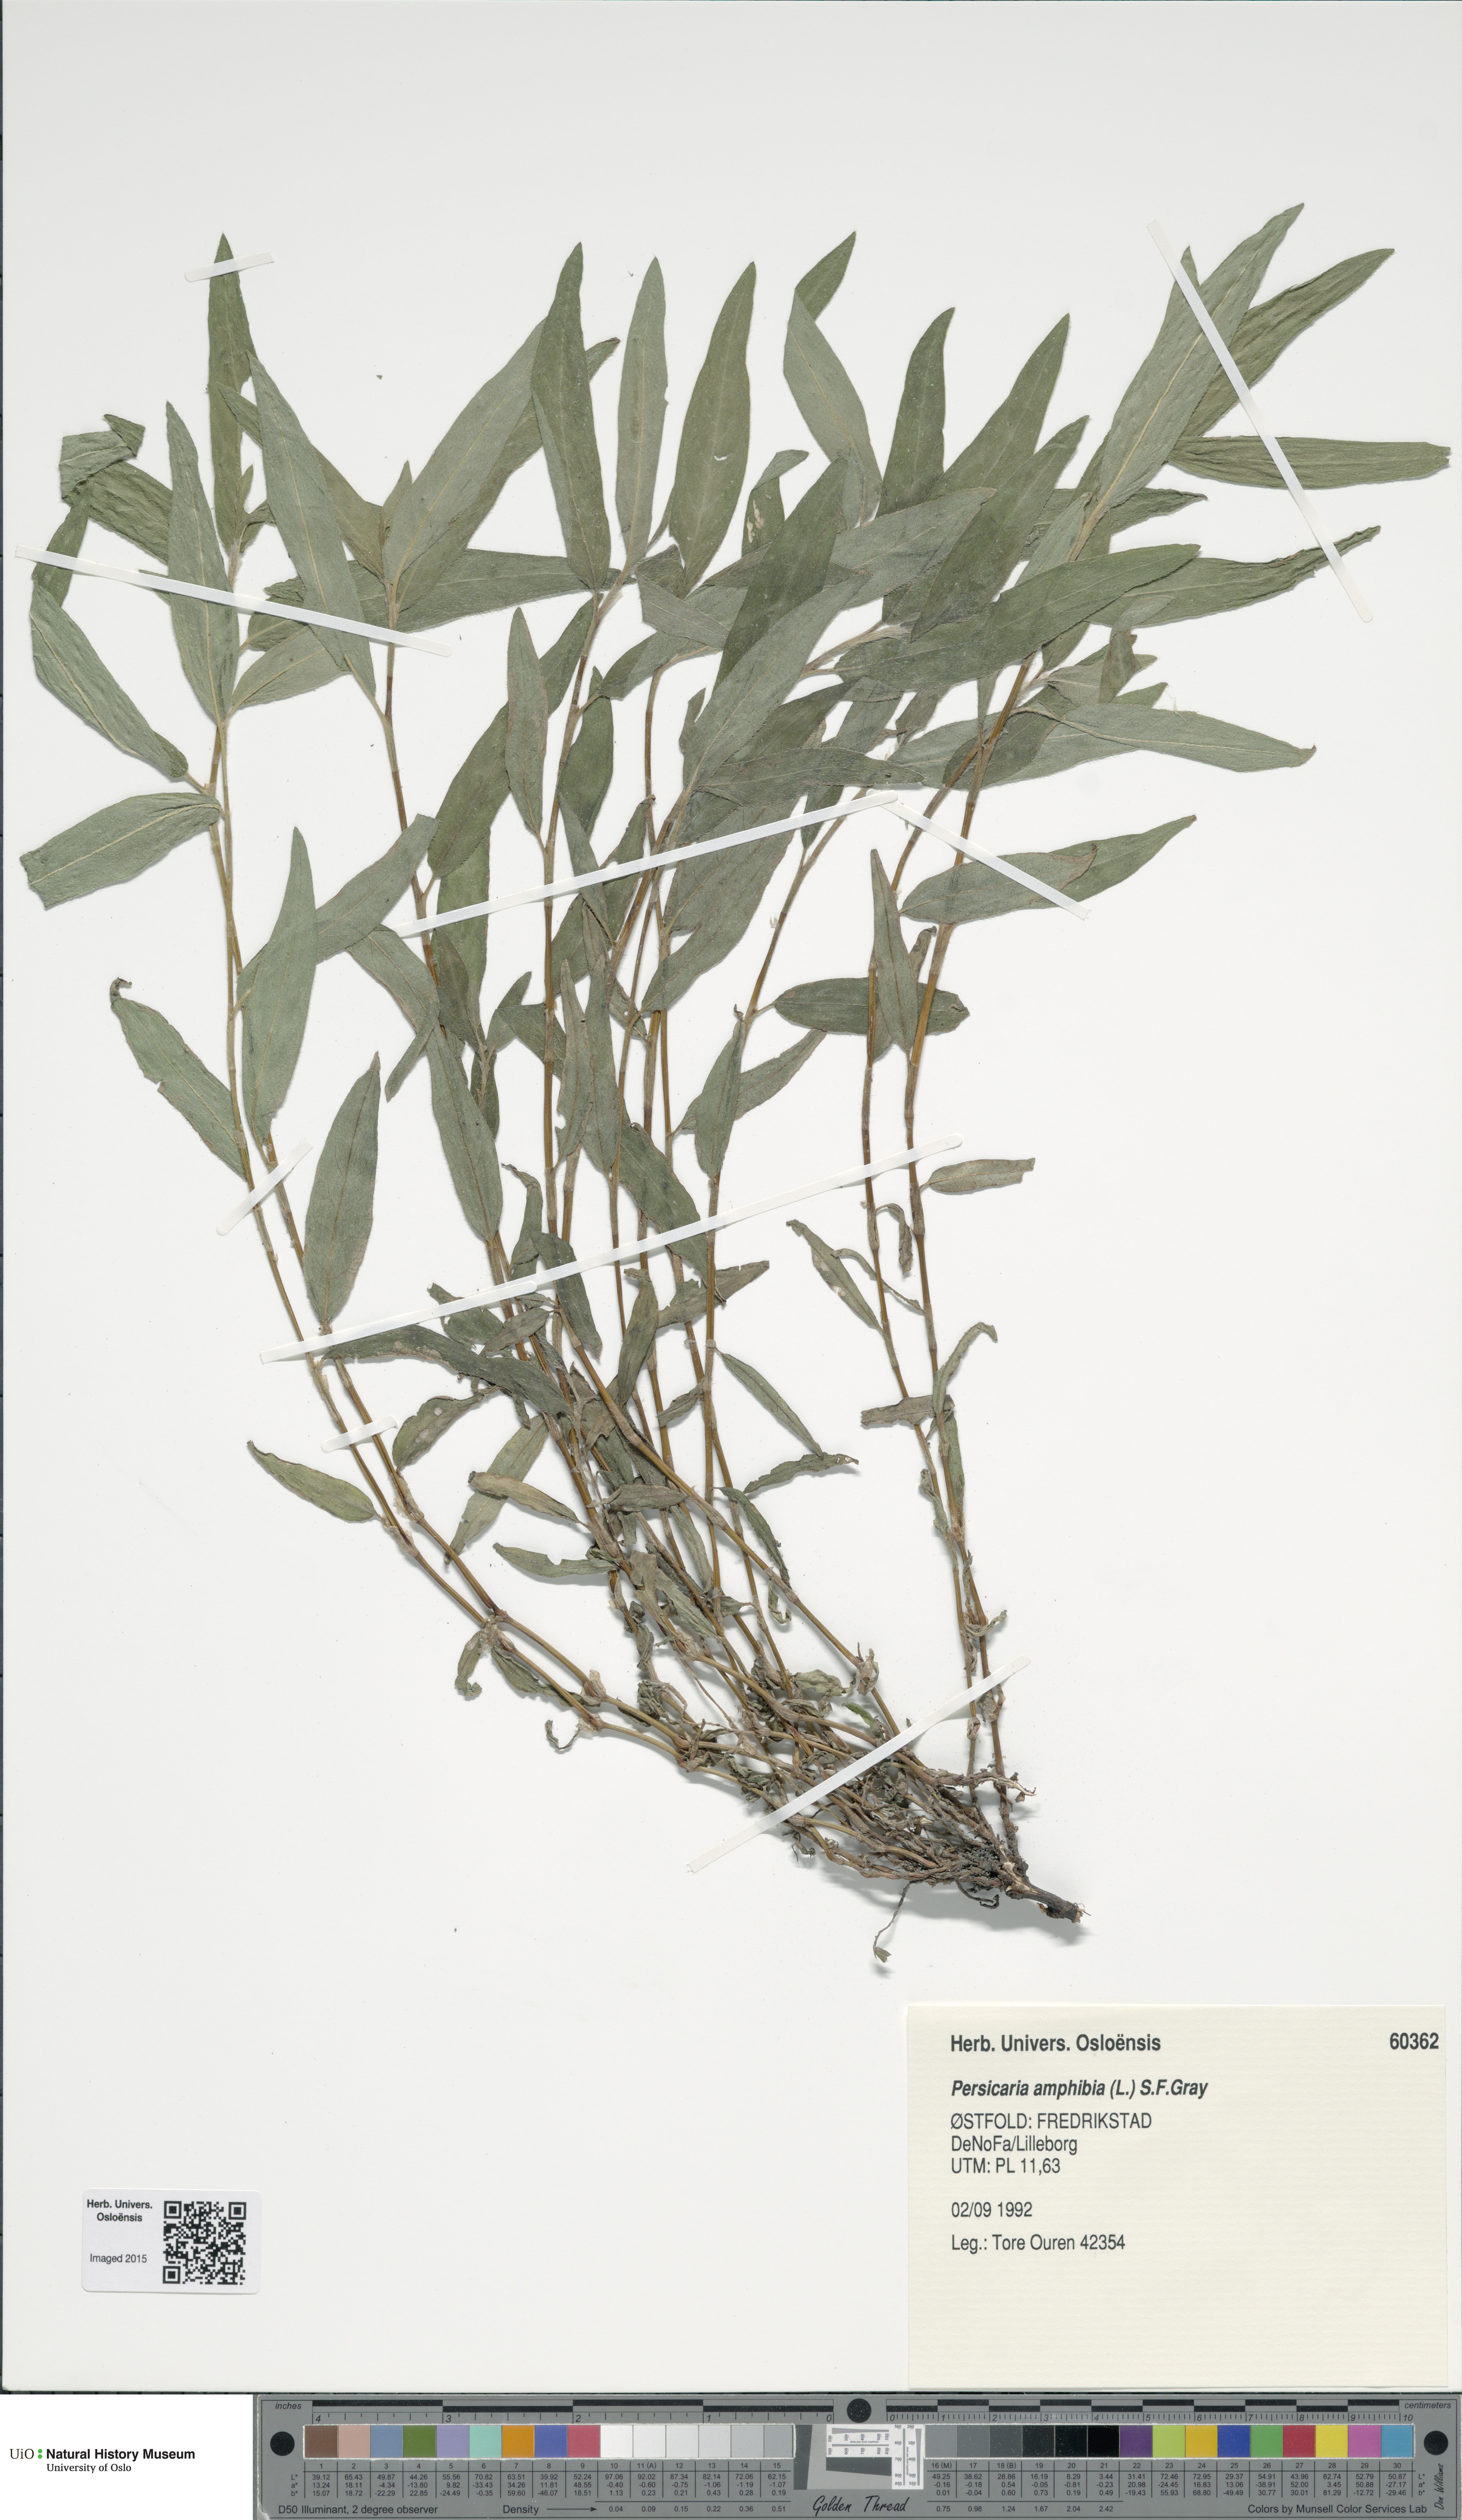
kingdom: Plantae
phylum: Tracheophyta
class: Magnoliopsida
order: Caryophyllales
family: Polygonaceae
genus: Persicaria
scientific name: Persicaria amphibia
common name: Amphibious bistort
